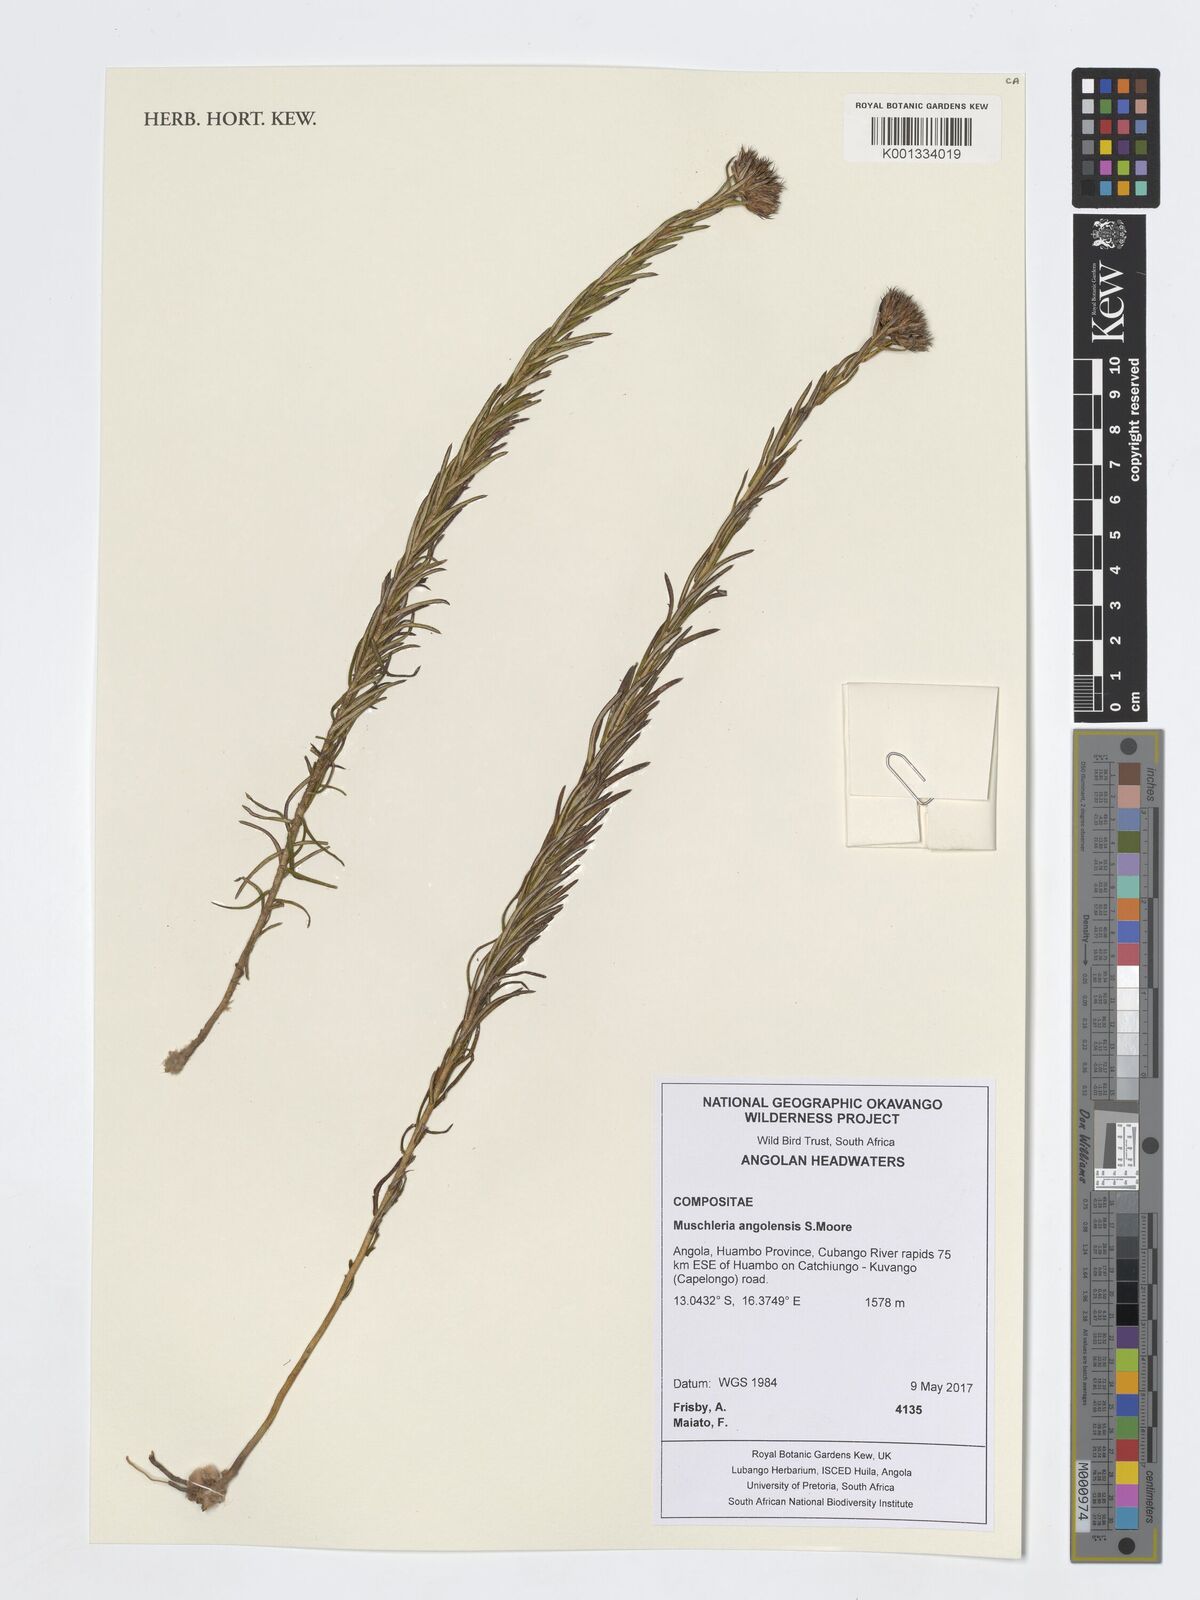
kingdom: Plantae
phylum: Tracheophyta
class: Magnoliopsida
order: Asterales
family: Asteraceae
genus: Muschleria
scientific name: Muschleria angolensis
